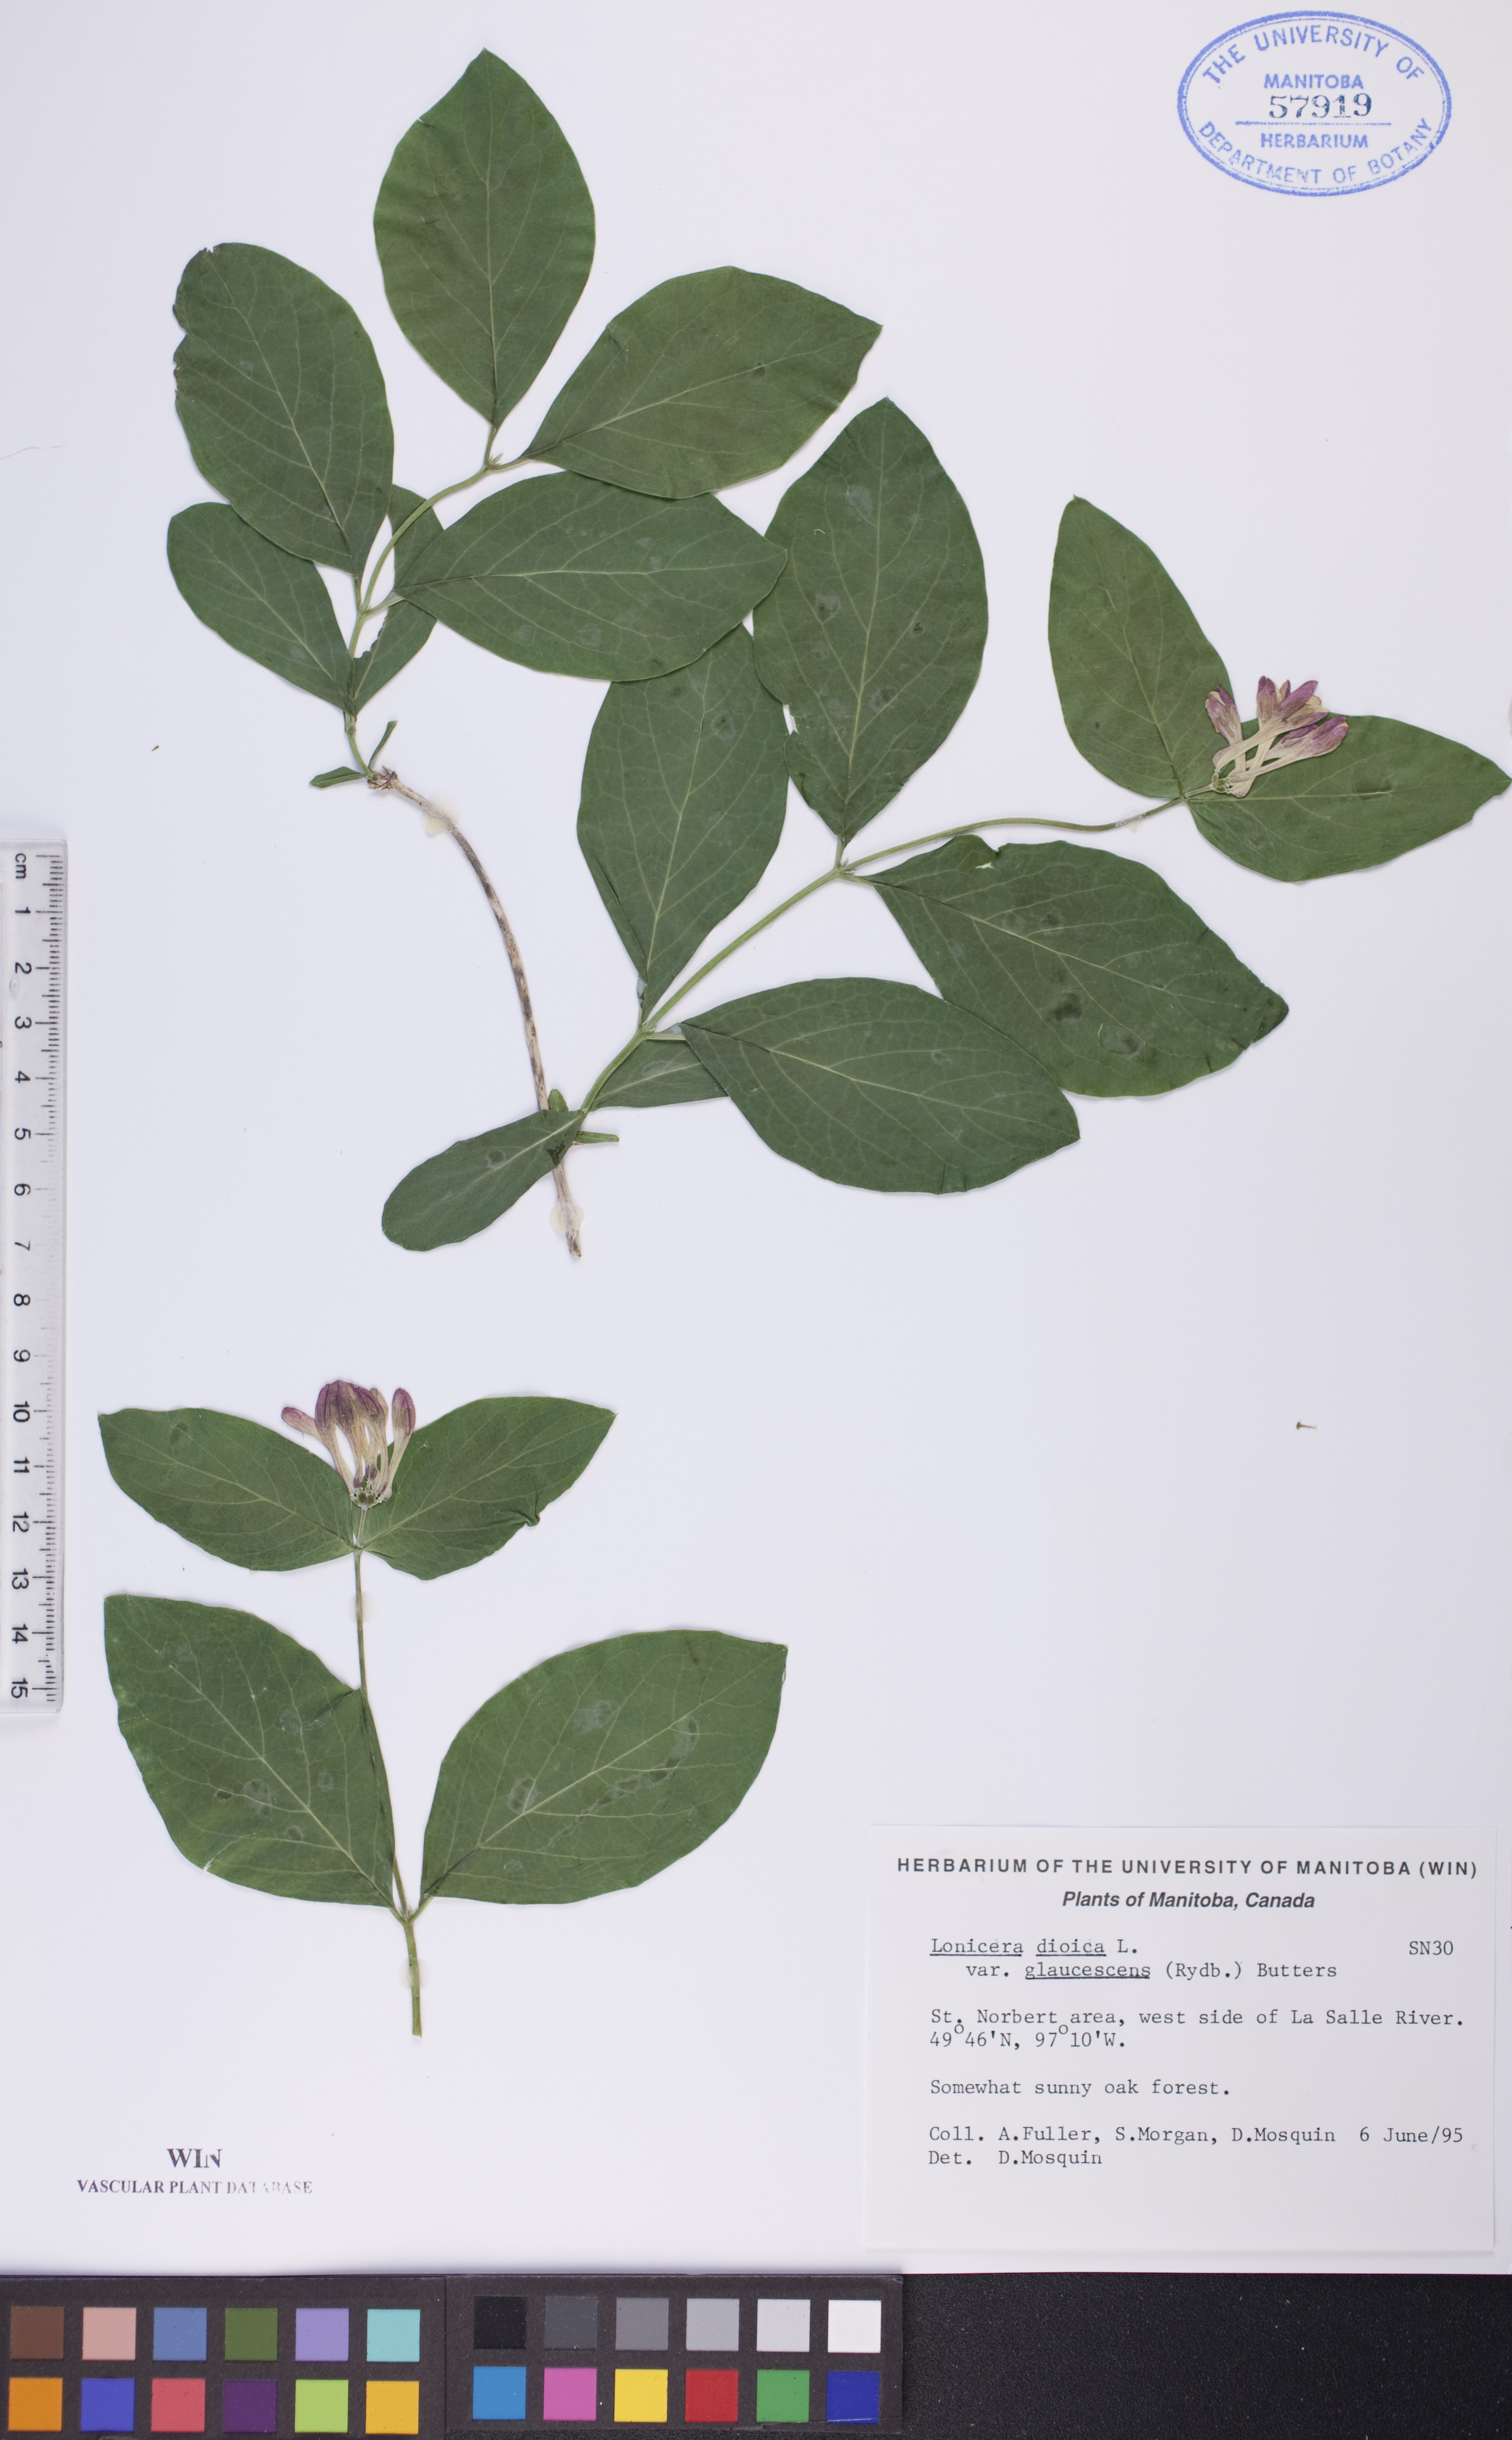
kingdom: Plantae
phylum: Tracheophyta
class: Magnoliopsida
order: Dipsacales
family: Caprifoliaceae
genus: Lonicera
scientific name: Lonicera dioica
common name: Limber honeysuckle
